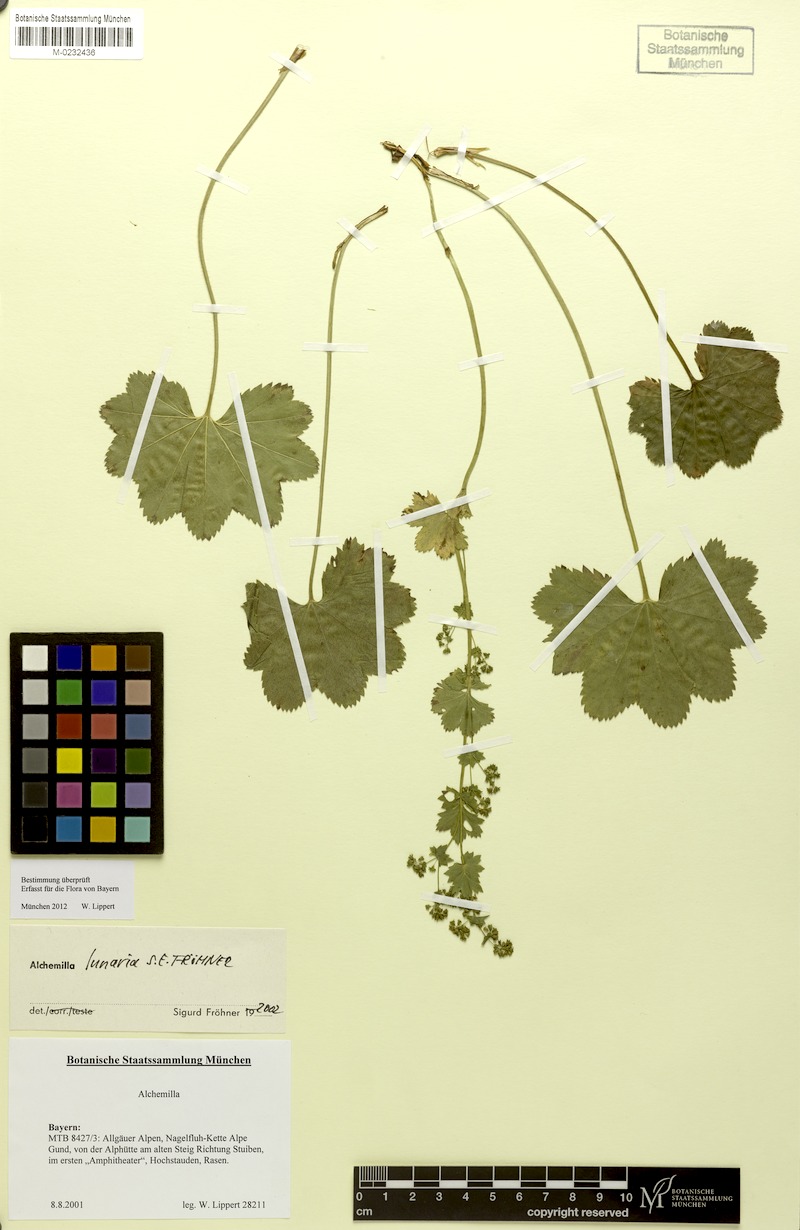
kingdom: Plantae
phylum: Tracheophyta
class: Magnoliopsida
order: Rosales
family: Rosaceae
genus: Alchemilla
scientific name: Alchemilla lunaria
